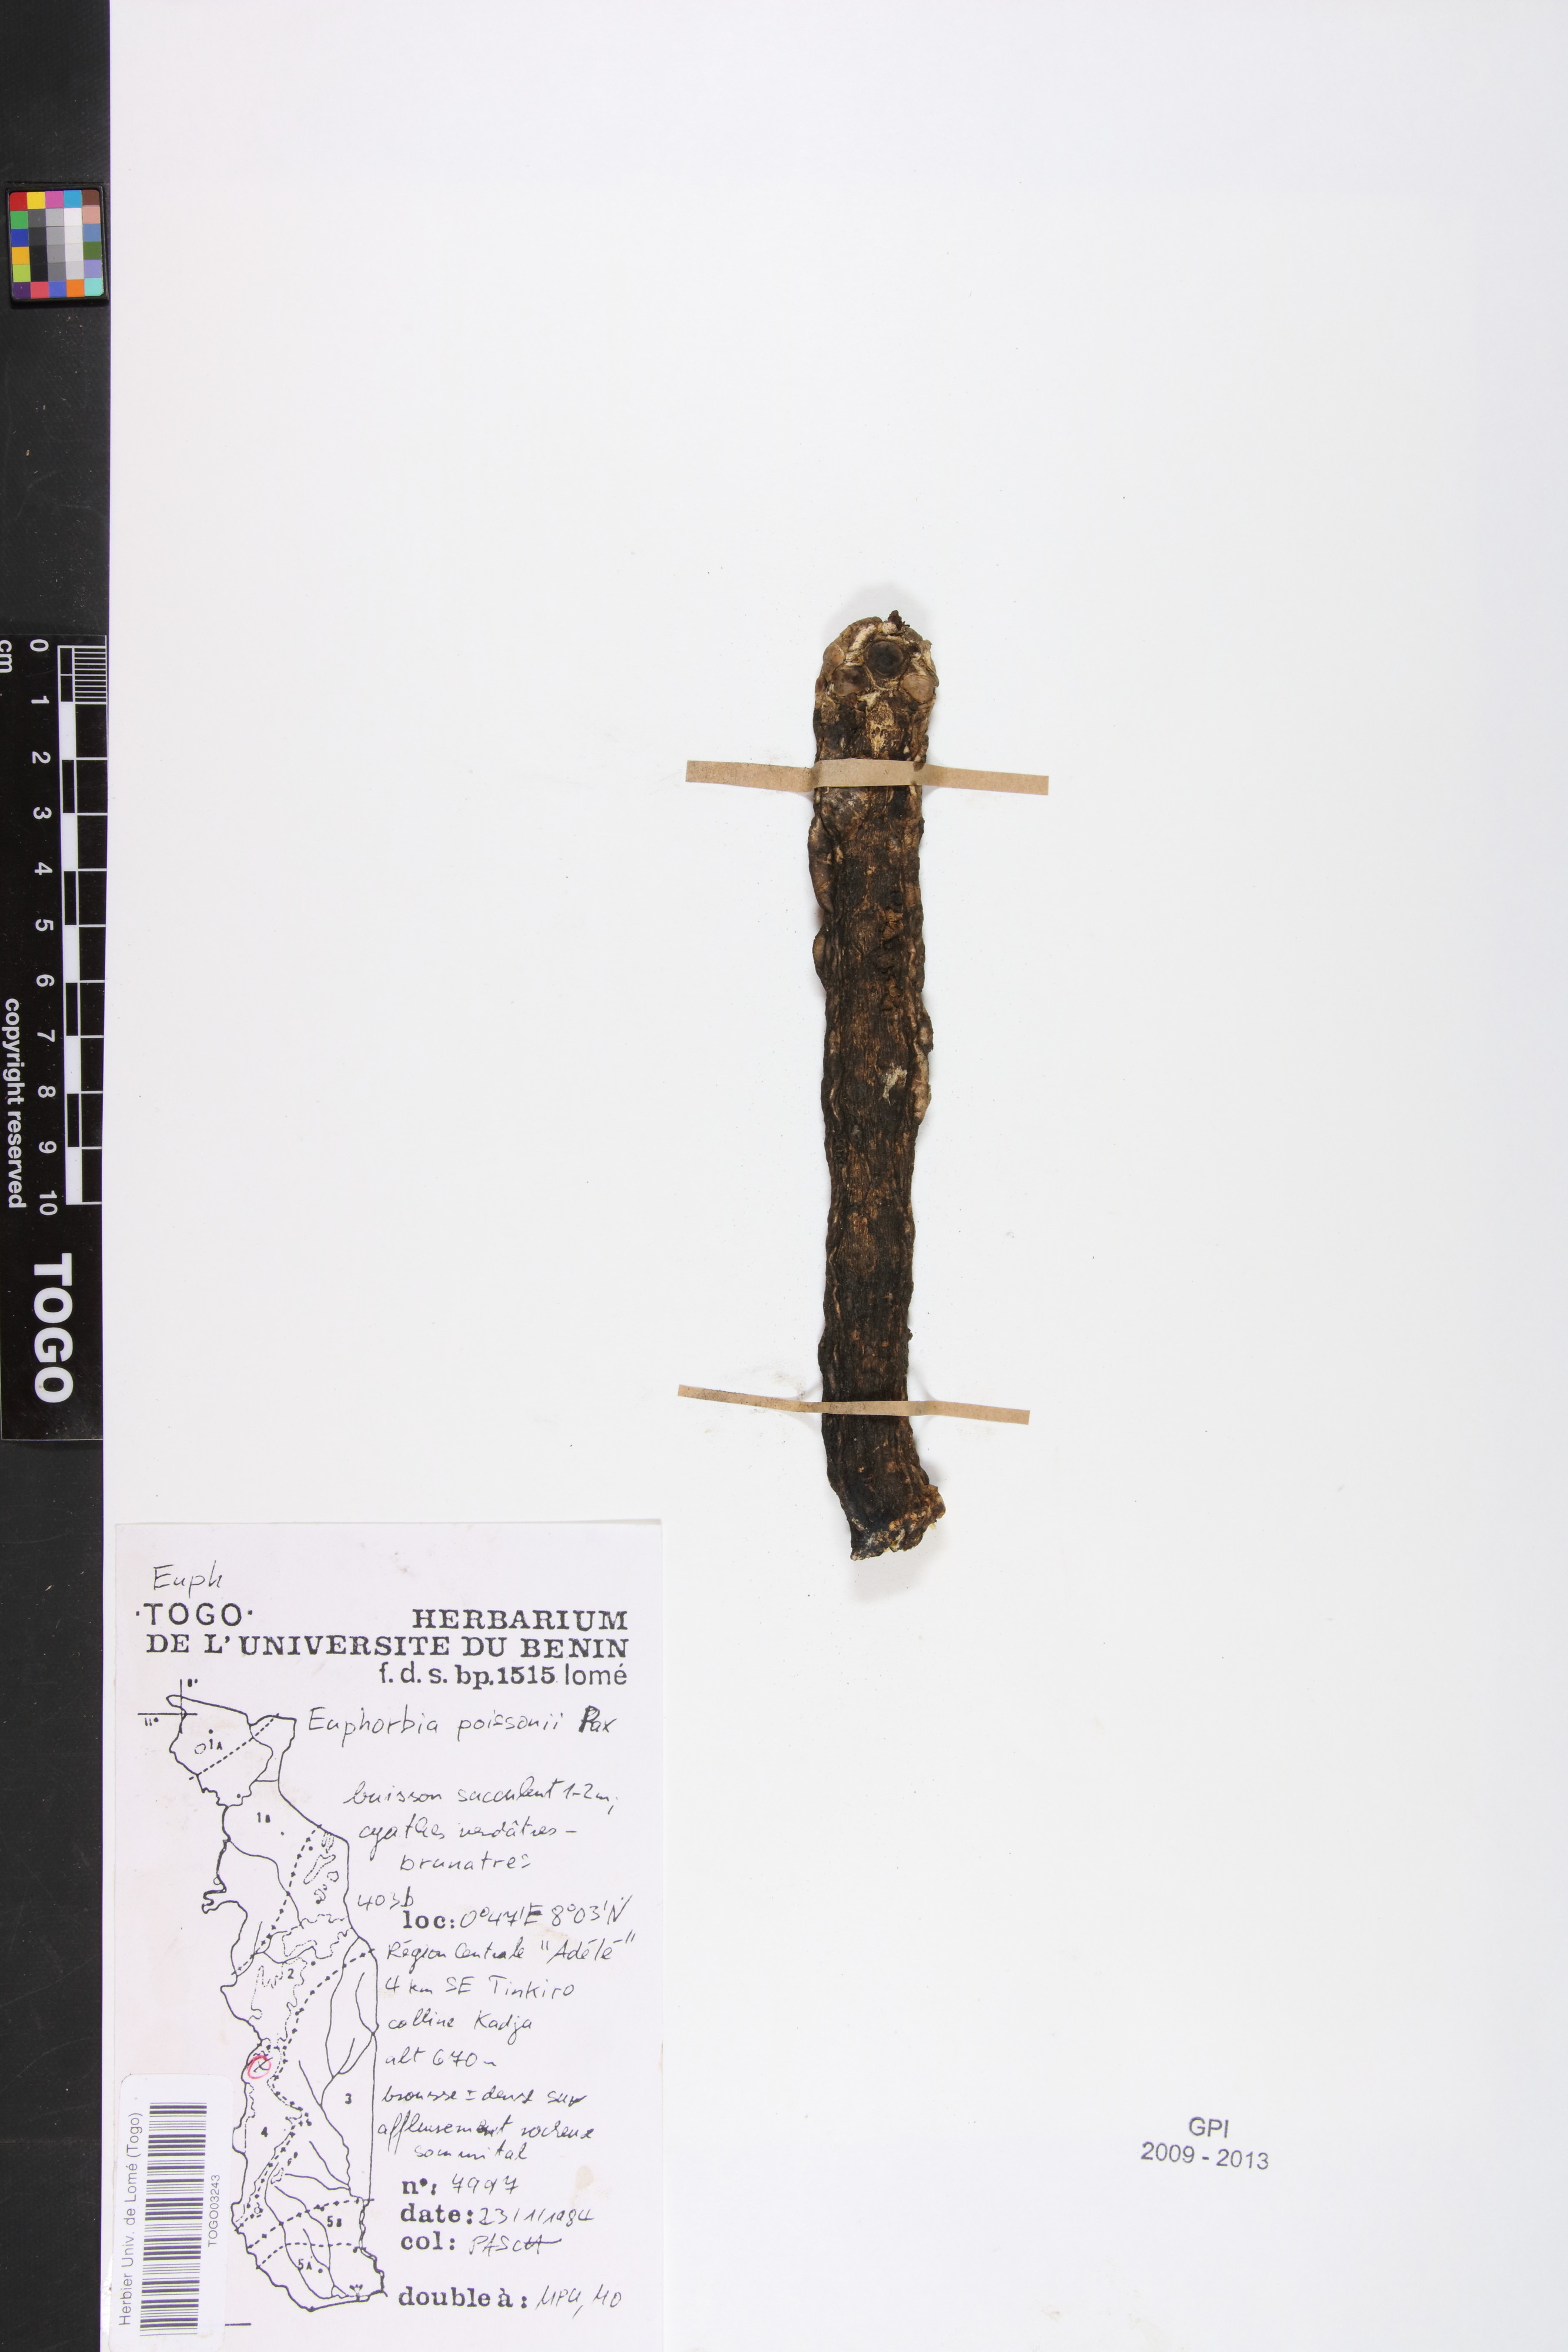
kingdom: Plantae
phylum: Tracheophyta
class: Magnoliopsida
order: Malpighiales
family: Euphorbiaceae
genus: Euphorbia
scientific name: Euphorbia poissonii
